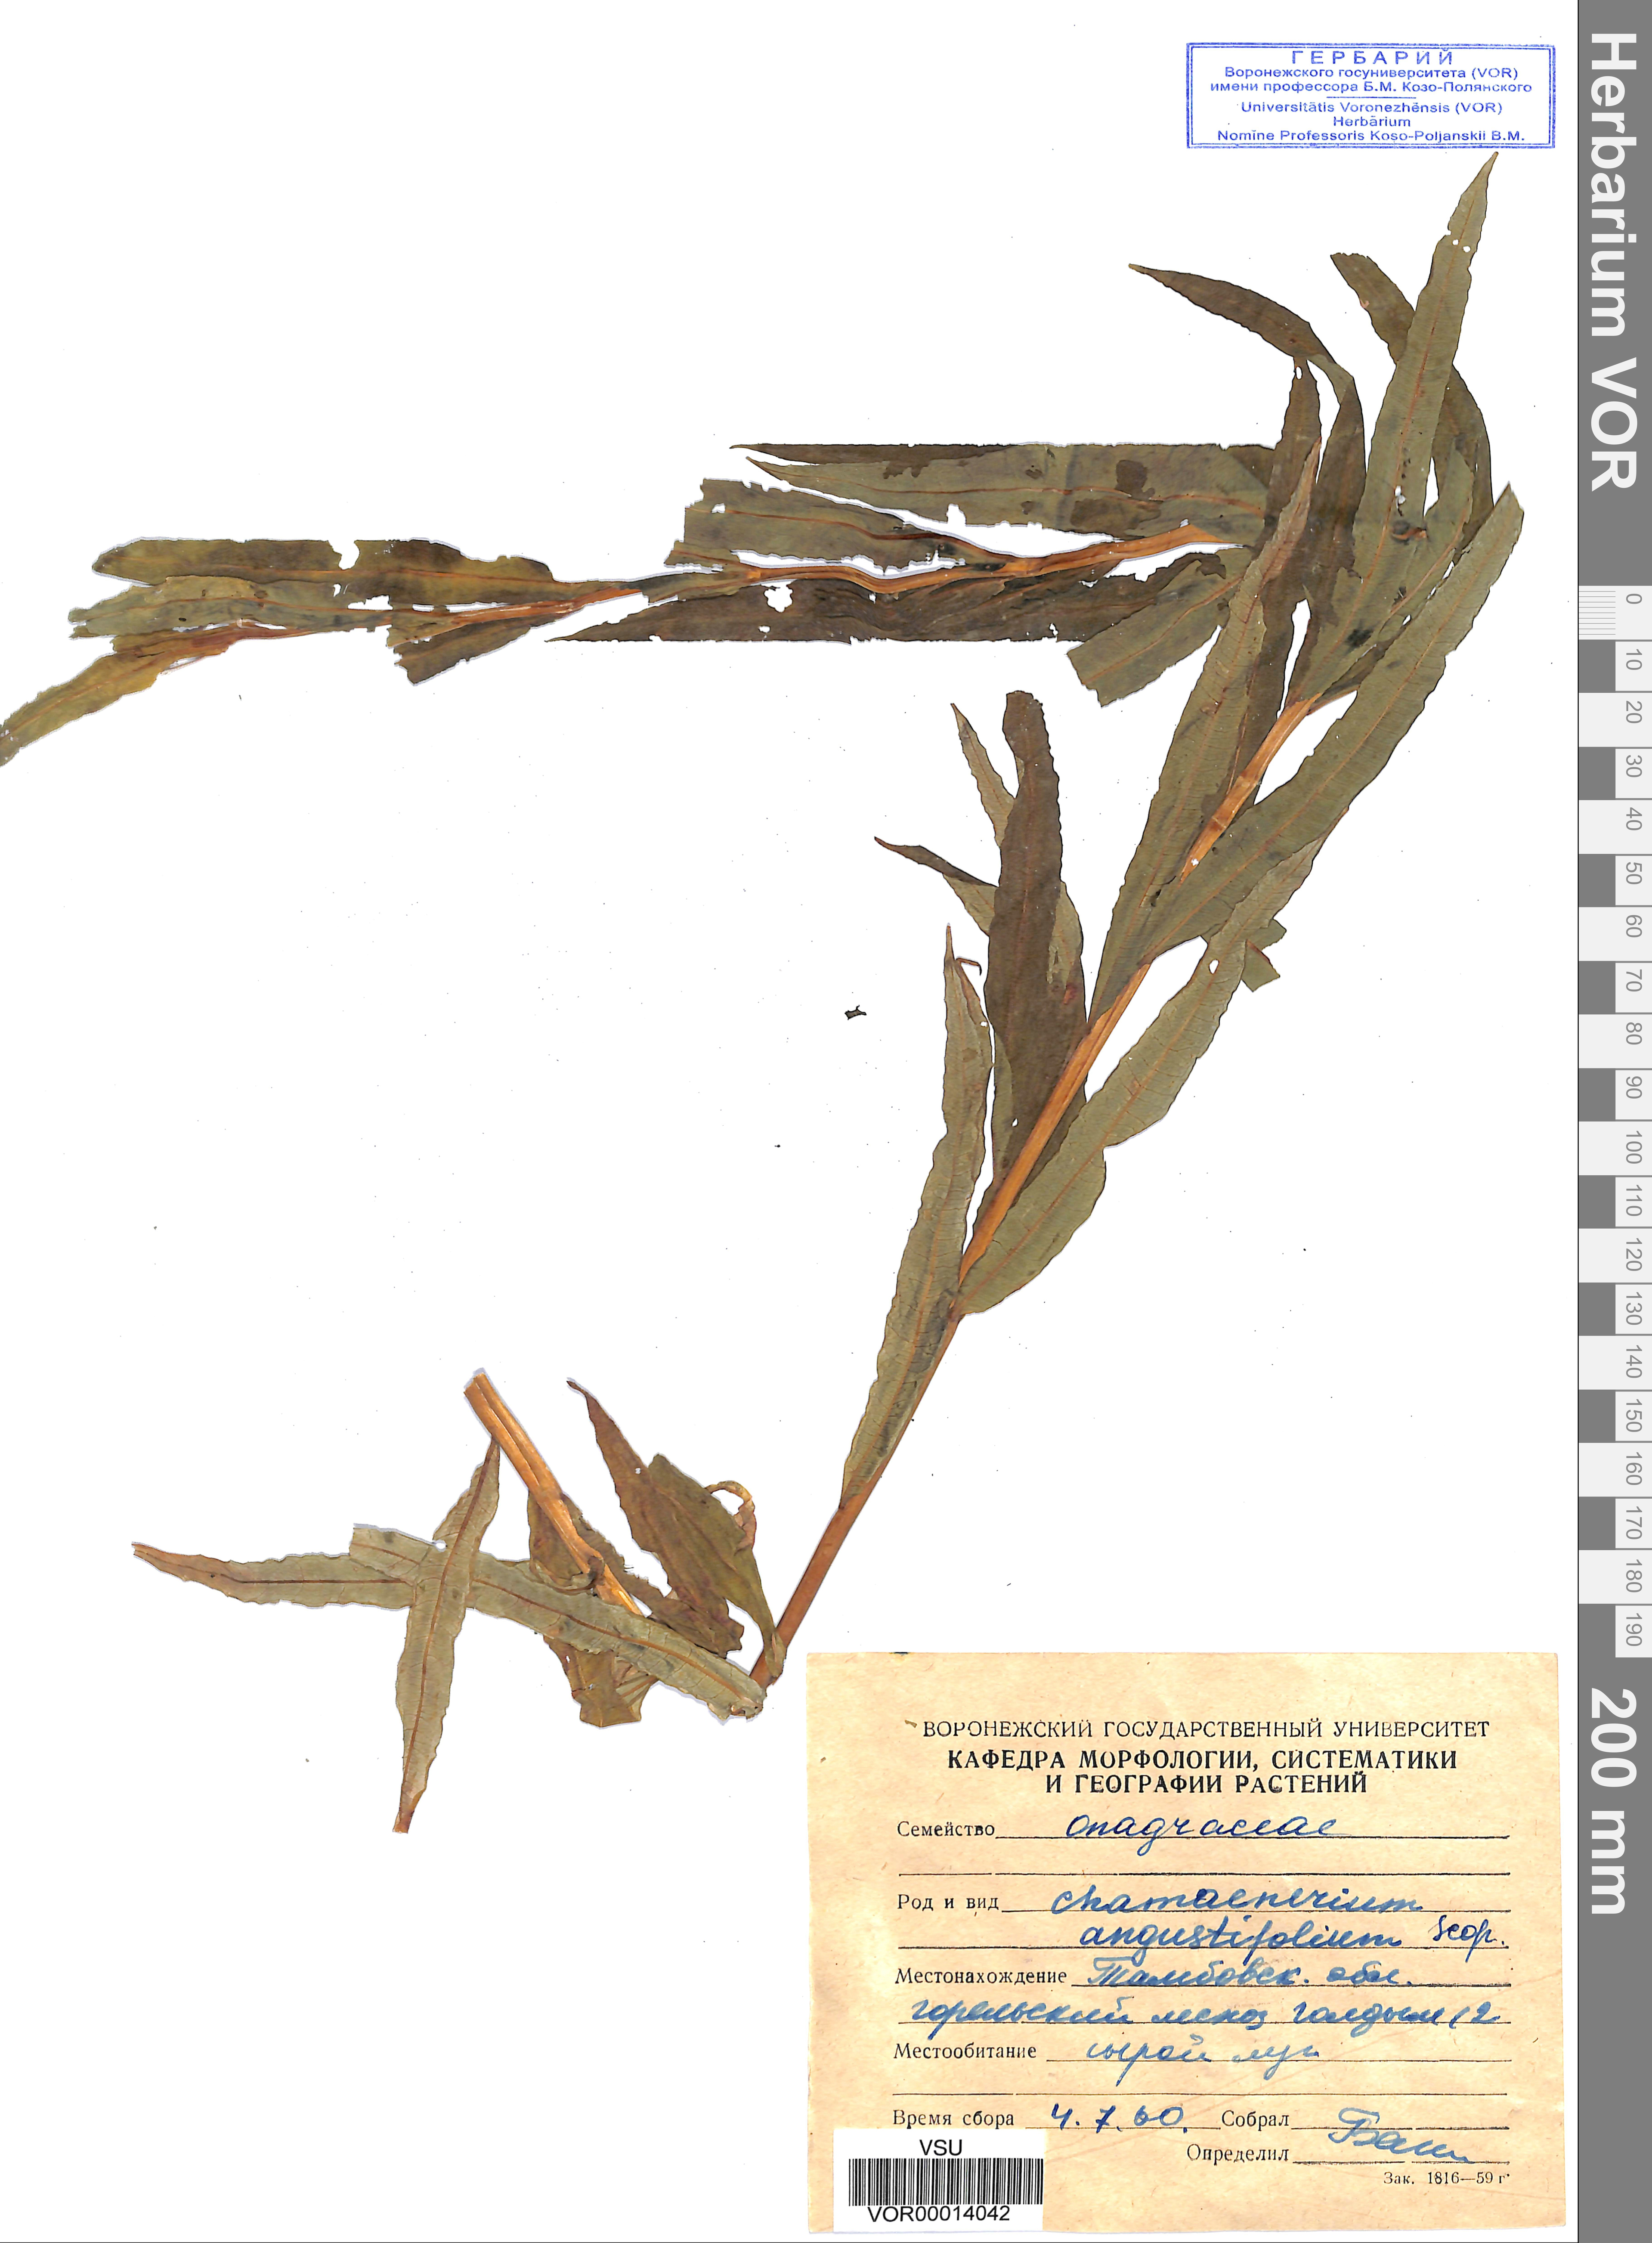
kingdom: Plantae
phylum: Tracheophyta
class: Magnoliopsida
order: Myrtales
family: Onagraceae
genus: Chamaenerion
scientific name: Chamaenerion angustifolium
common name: Fireweed
